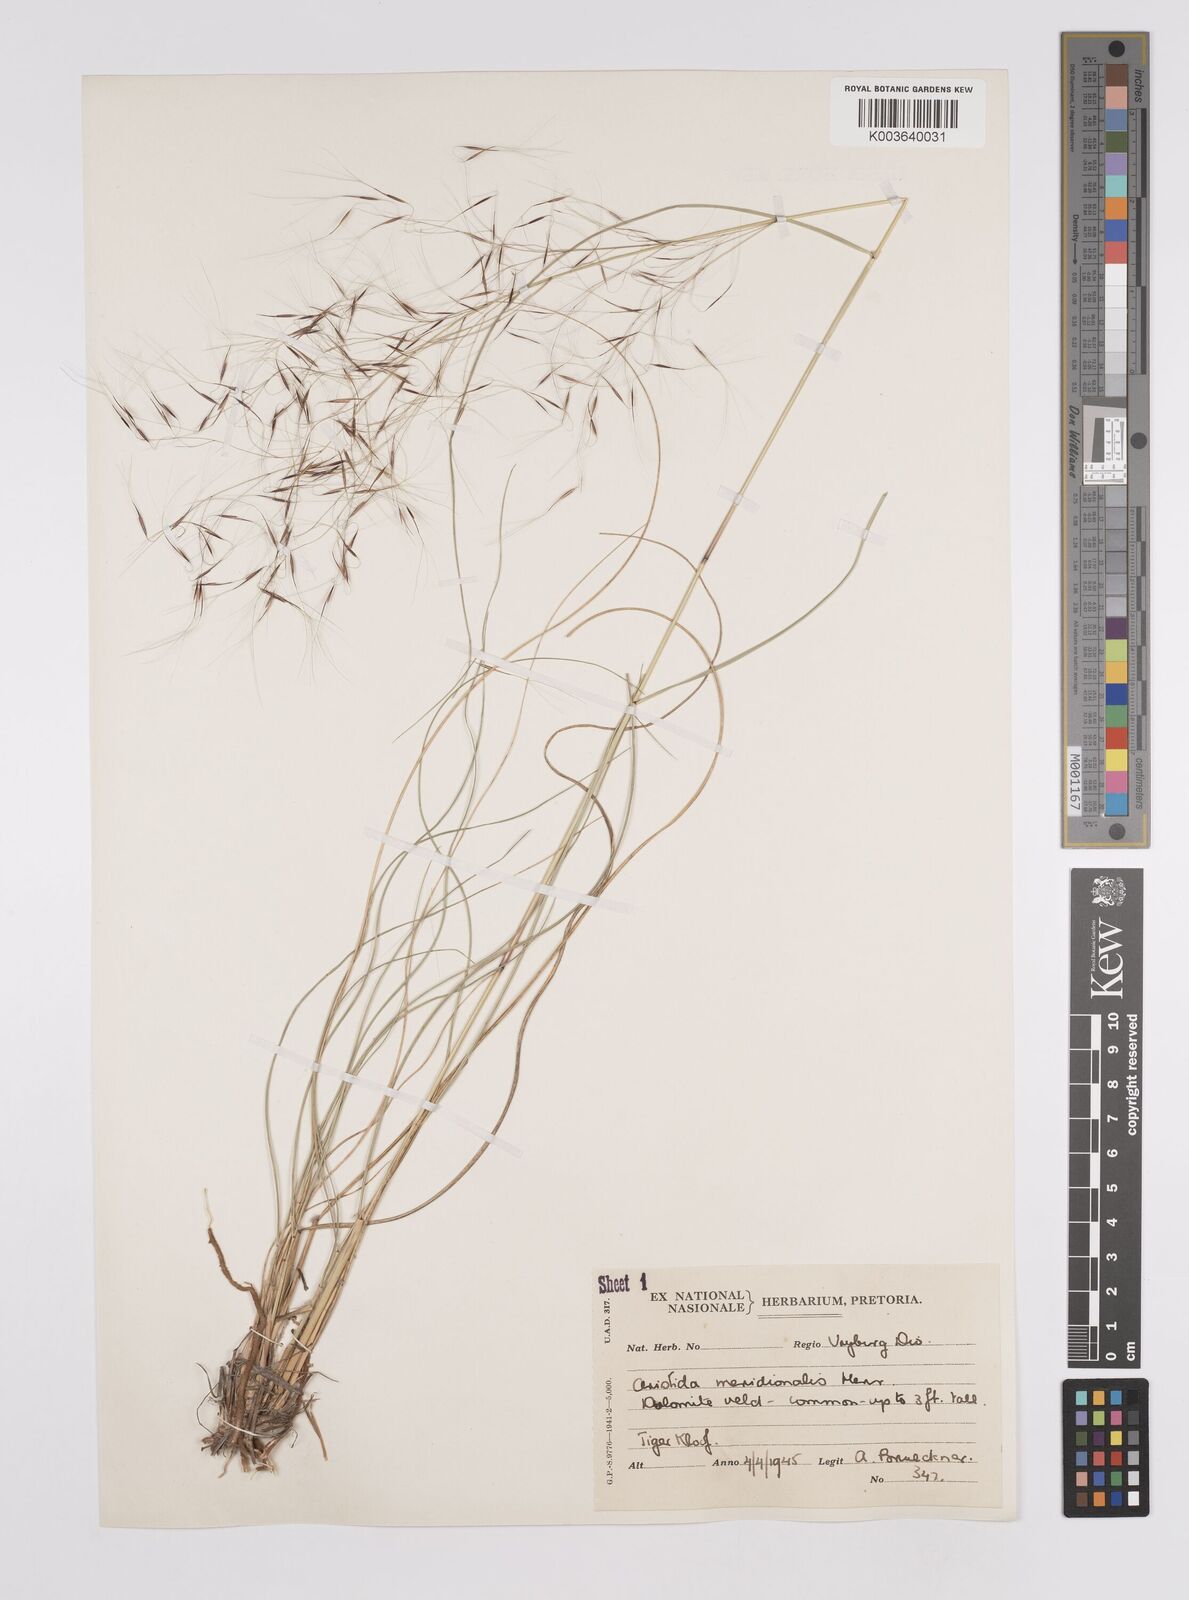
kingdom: Plantae
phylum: Tracheophyta
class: Liliopsida
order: Poales
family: Poaceae
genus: Aristida
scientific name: Aristida meridionalis
